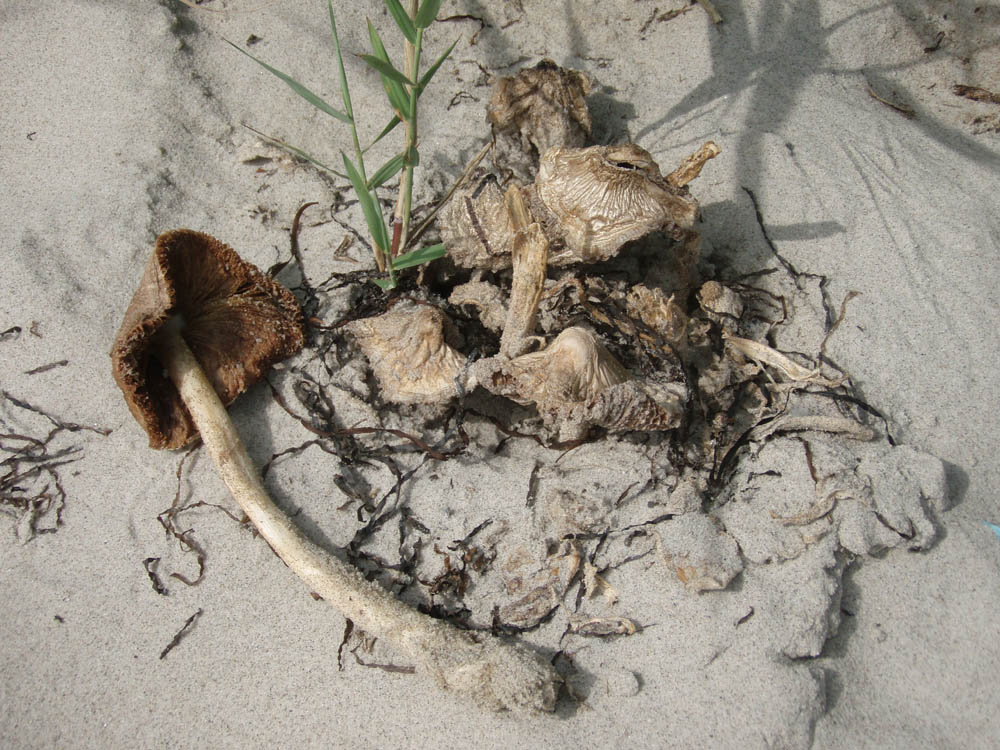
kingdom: Fungi
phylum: Basidiomycota
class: Agaricomycetes
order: Agaricales
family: Pluteaceae
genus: Volvopluteus
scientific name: Volvopluteus gloiocephalus
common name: høj posesvamp
